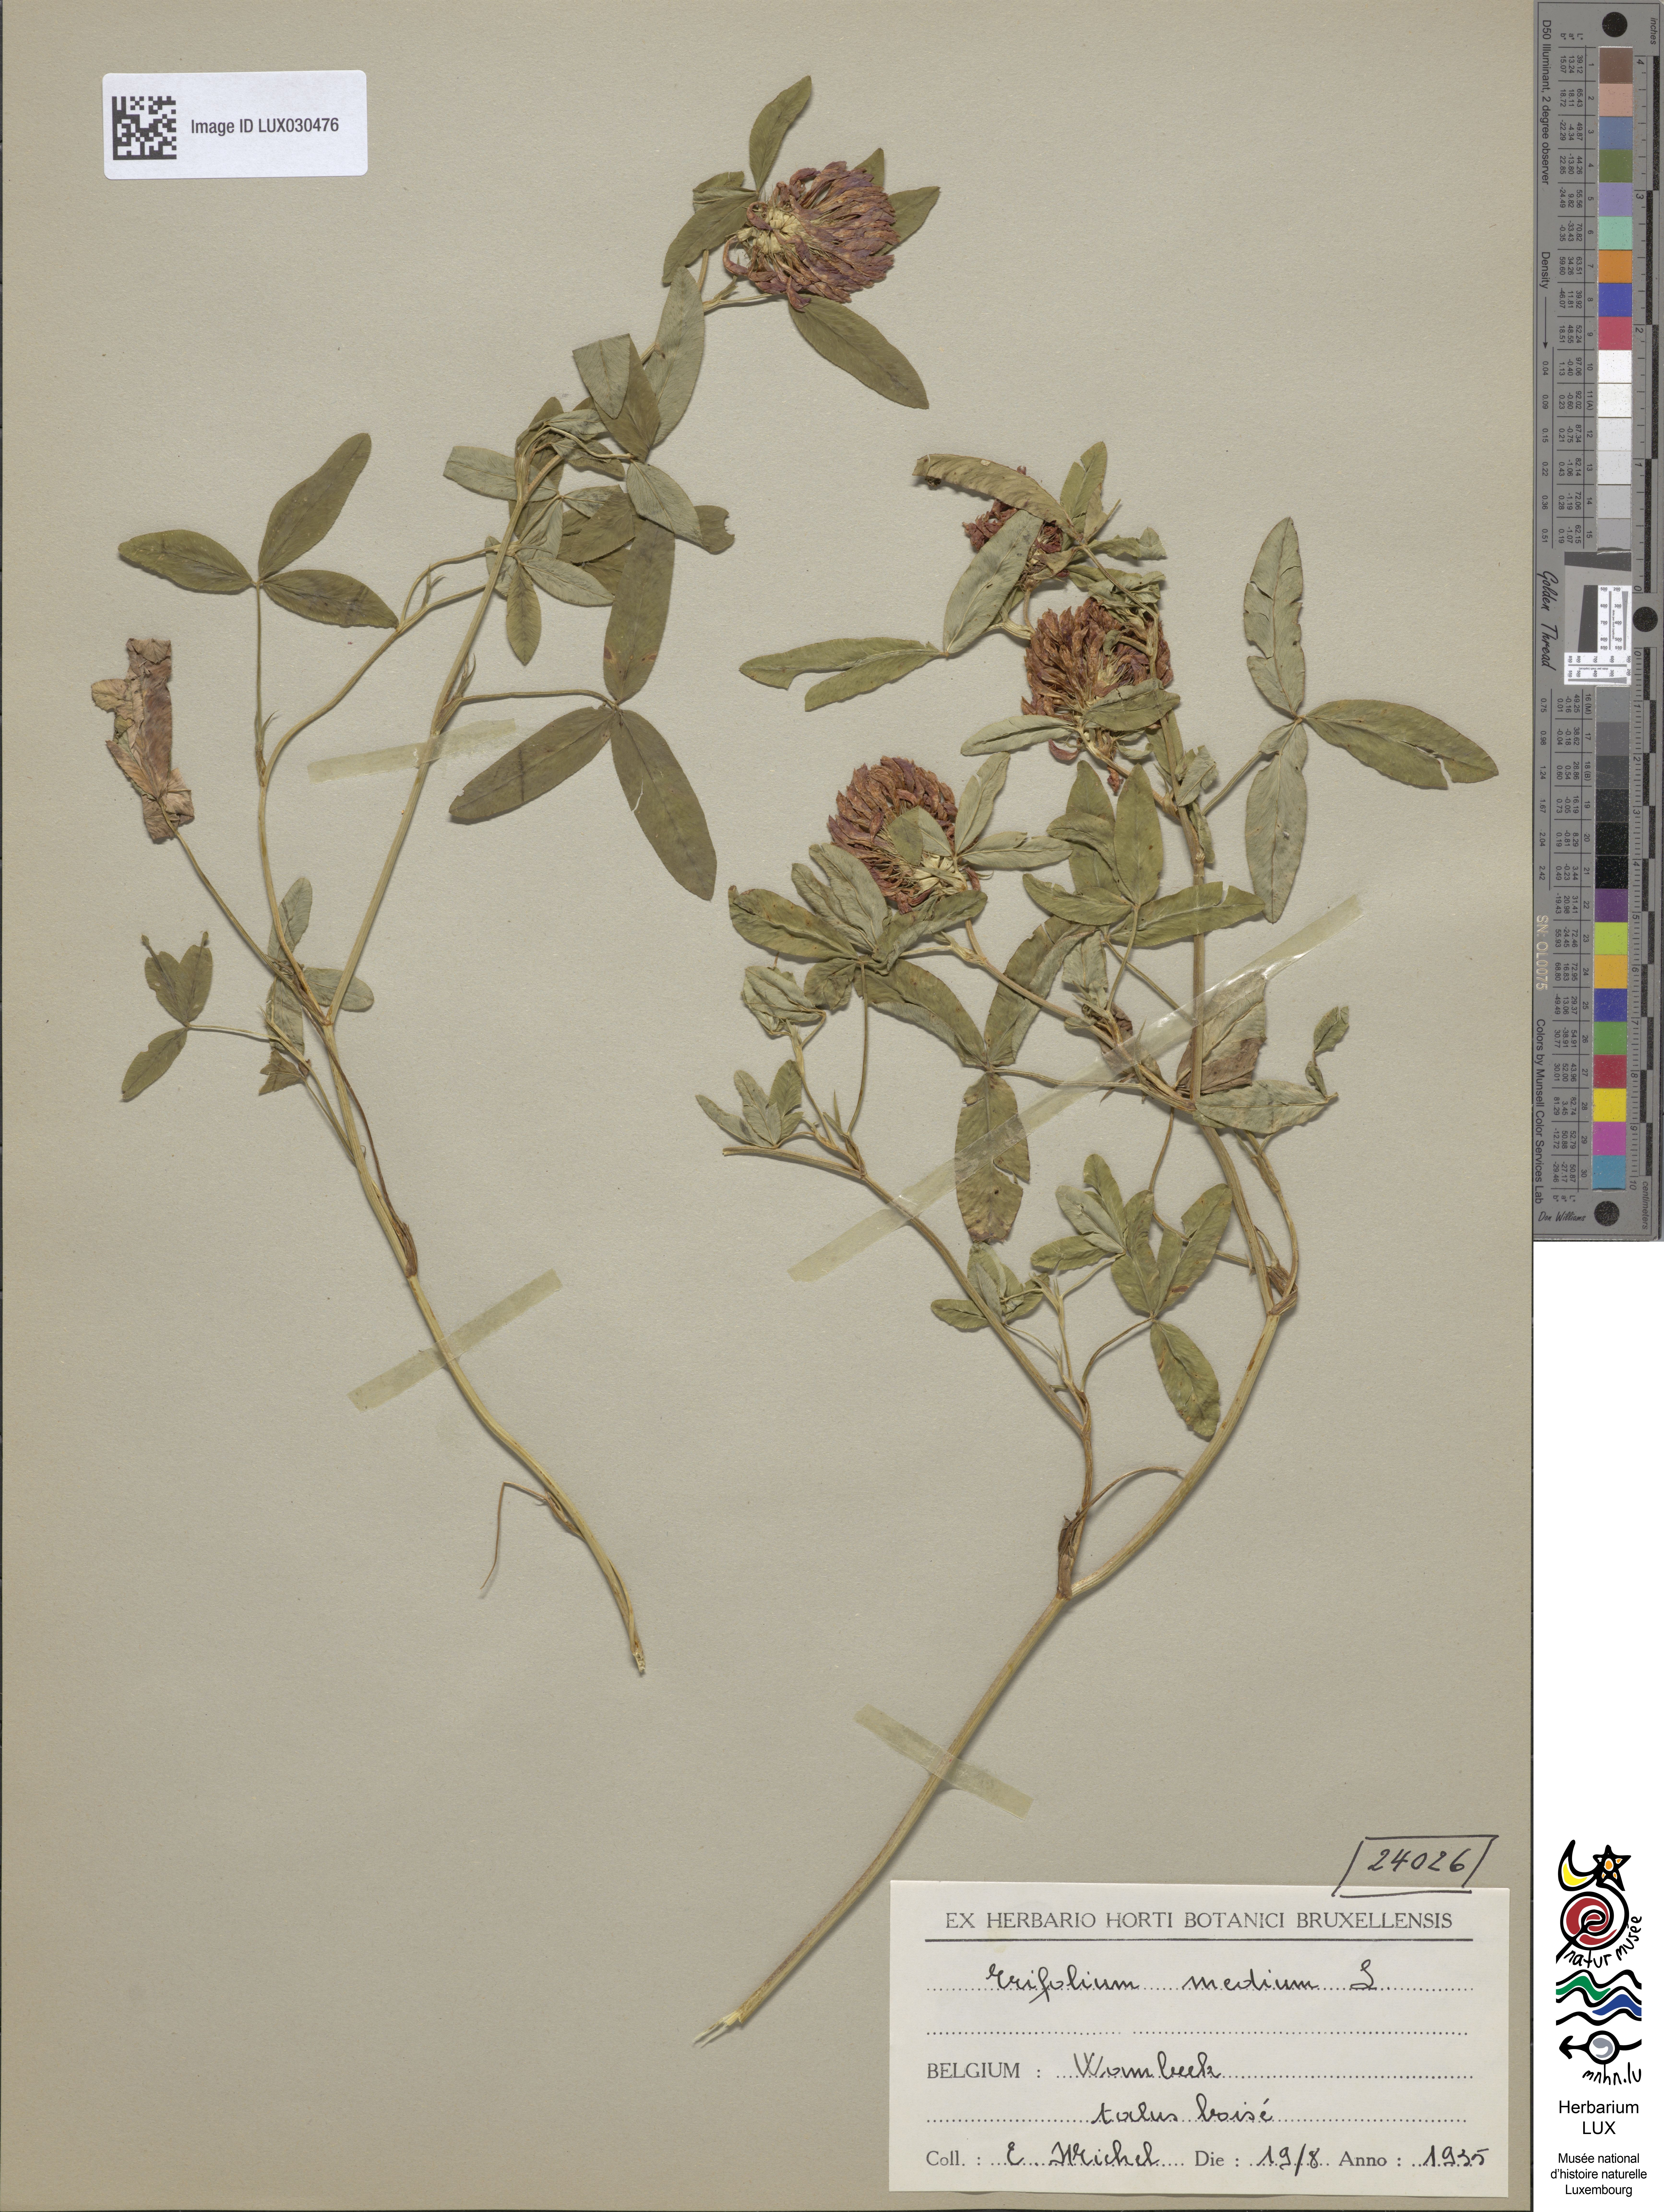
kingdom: Plantae
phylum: Tracheophyta
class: Magnoliopsida
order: Fabales
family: Fabaceae
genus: Trifolium
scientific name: Trifolium medium
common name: Zigzag clover
